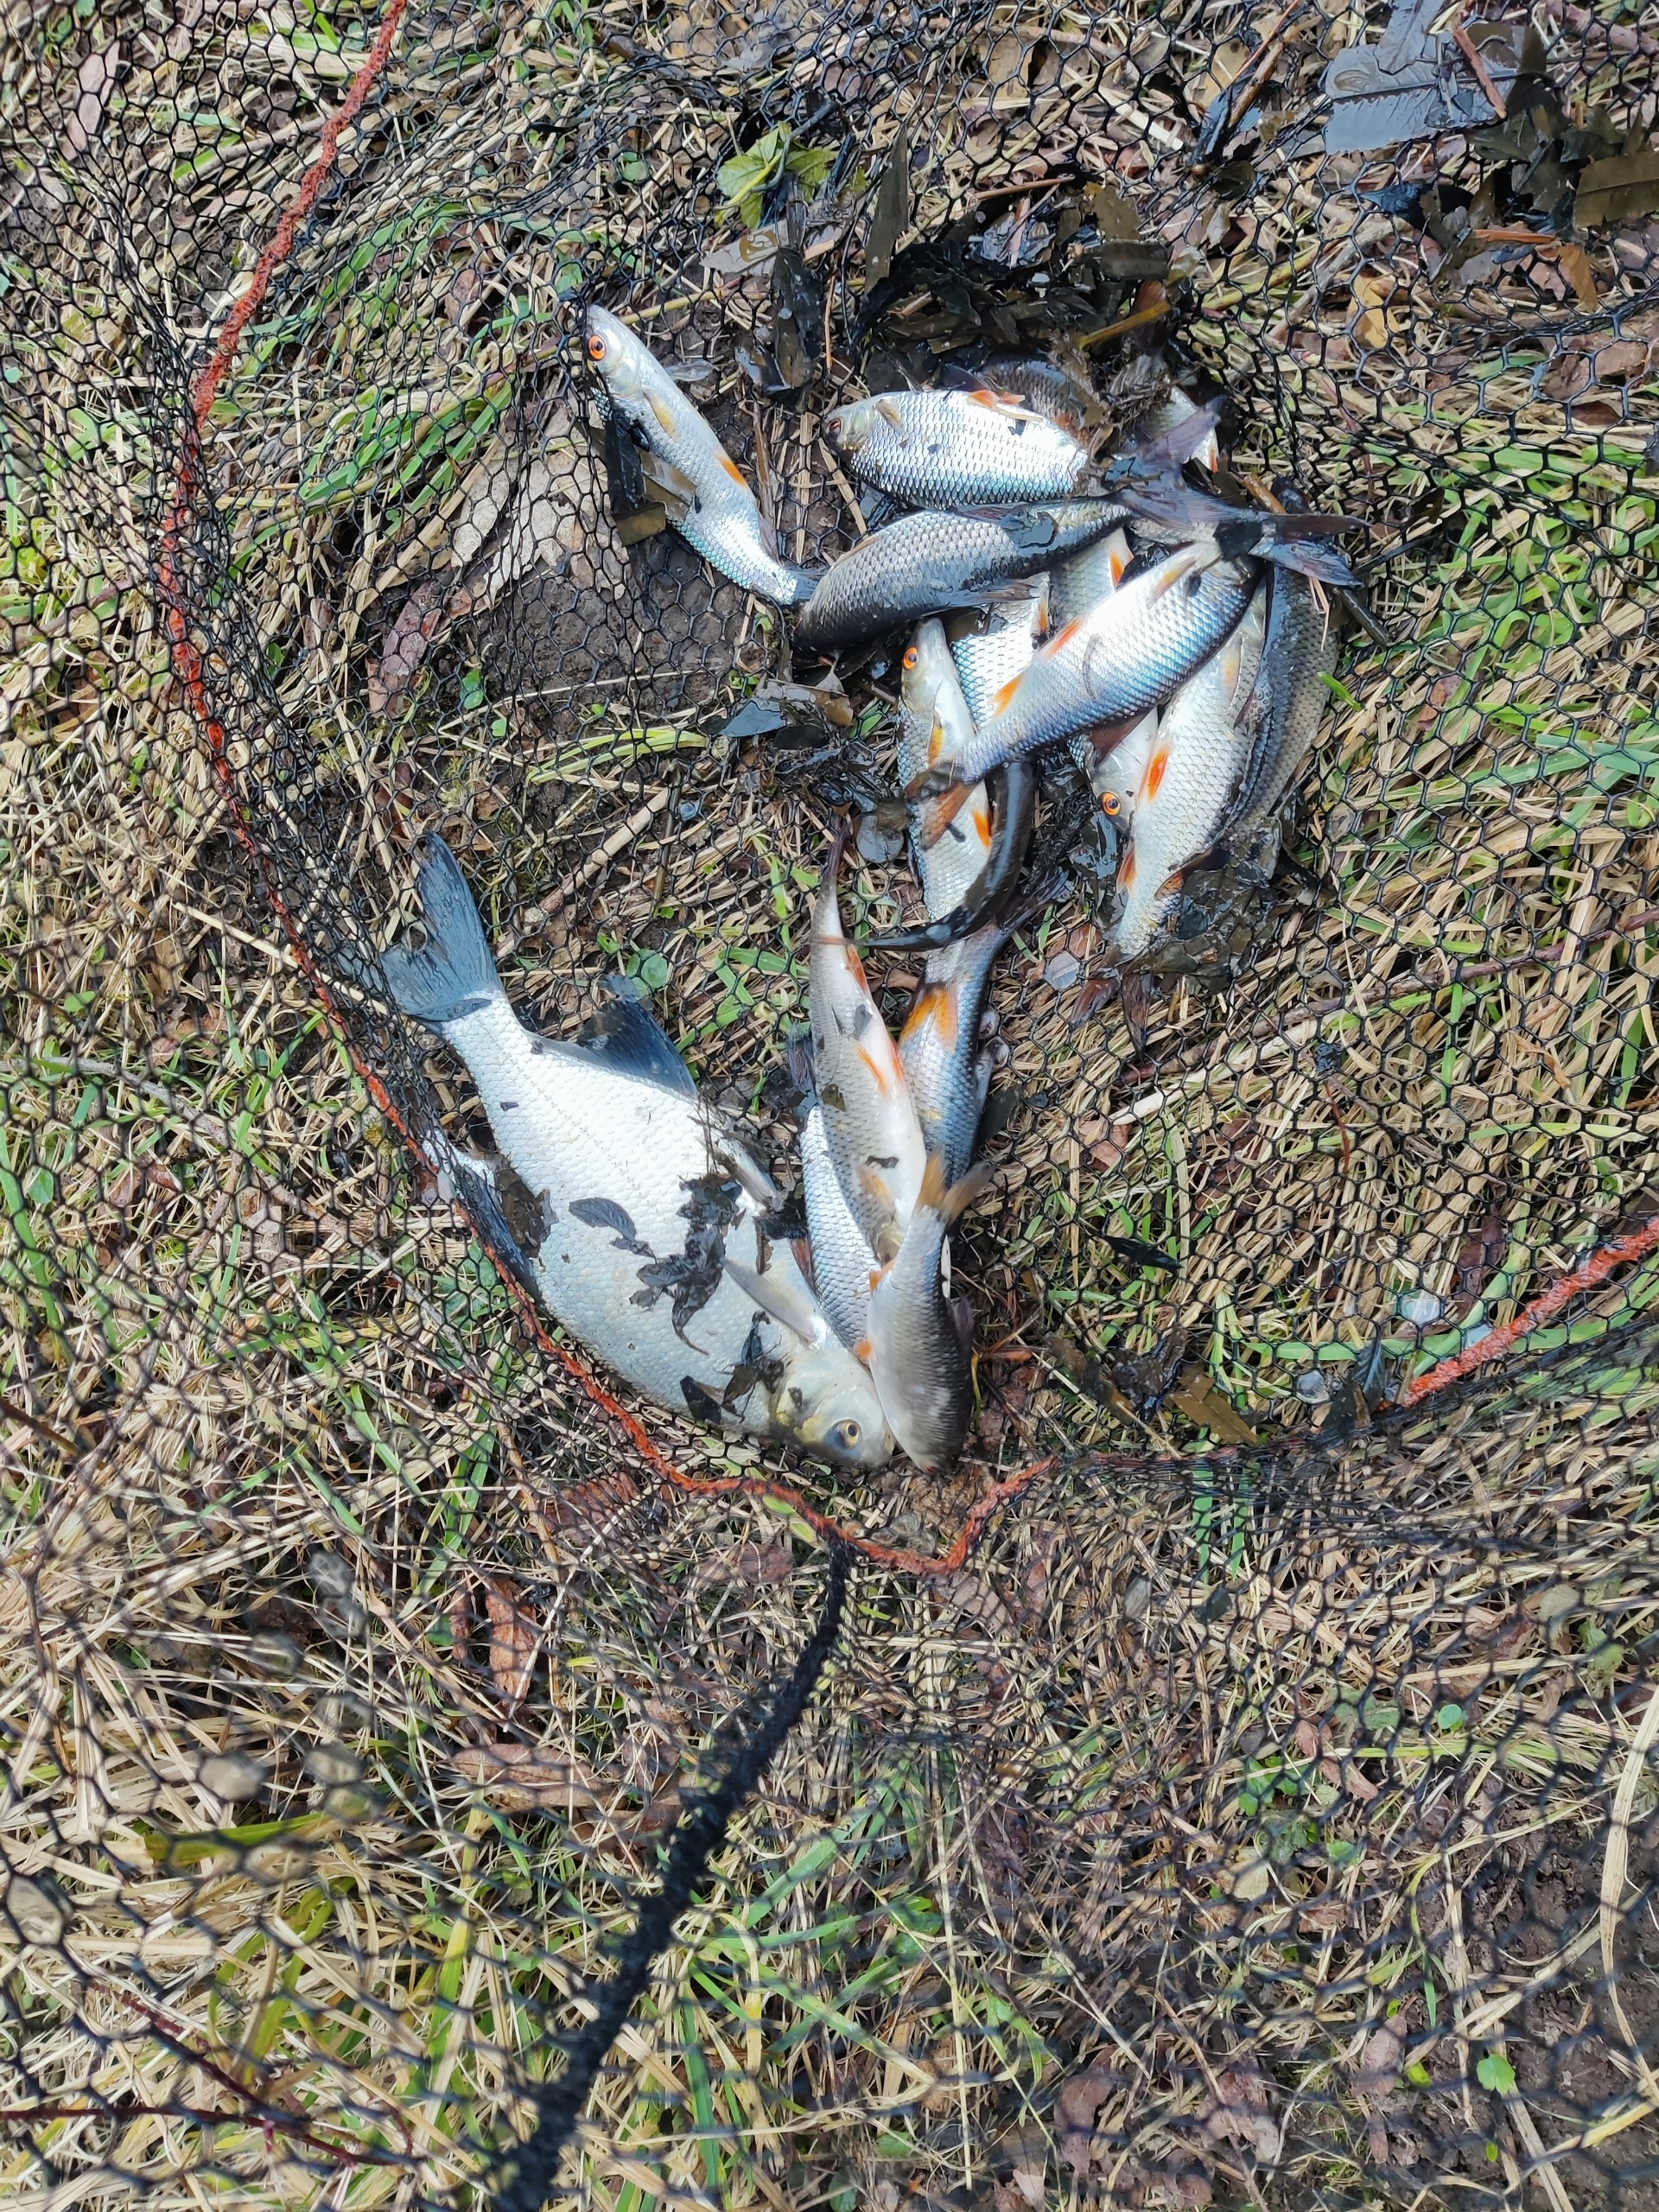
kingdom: Animalia
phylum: Chordata
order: Cypriniformes
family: Cyprinidae
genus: Abramis
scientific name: Abramis brama
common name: Brasen
